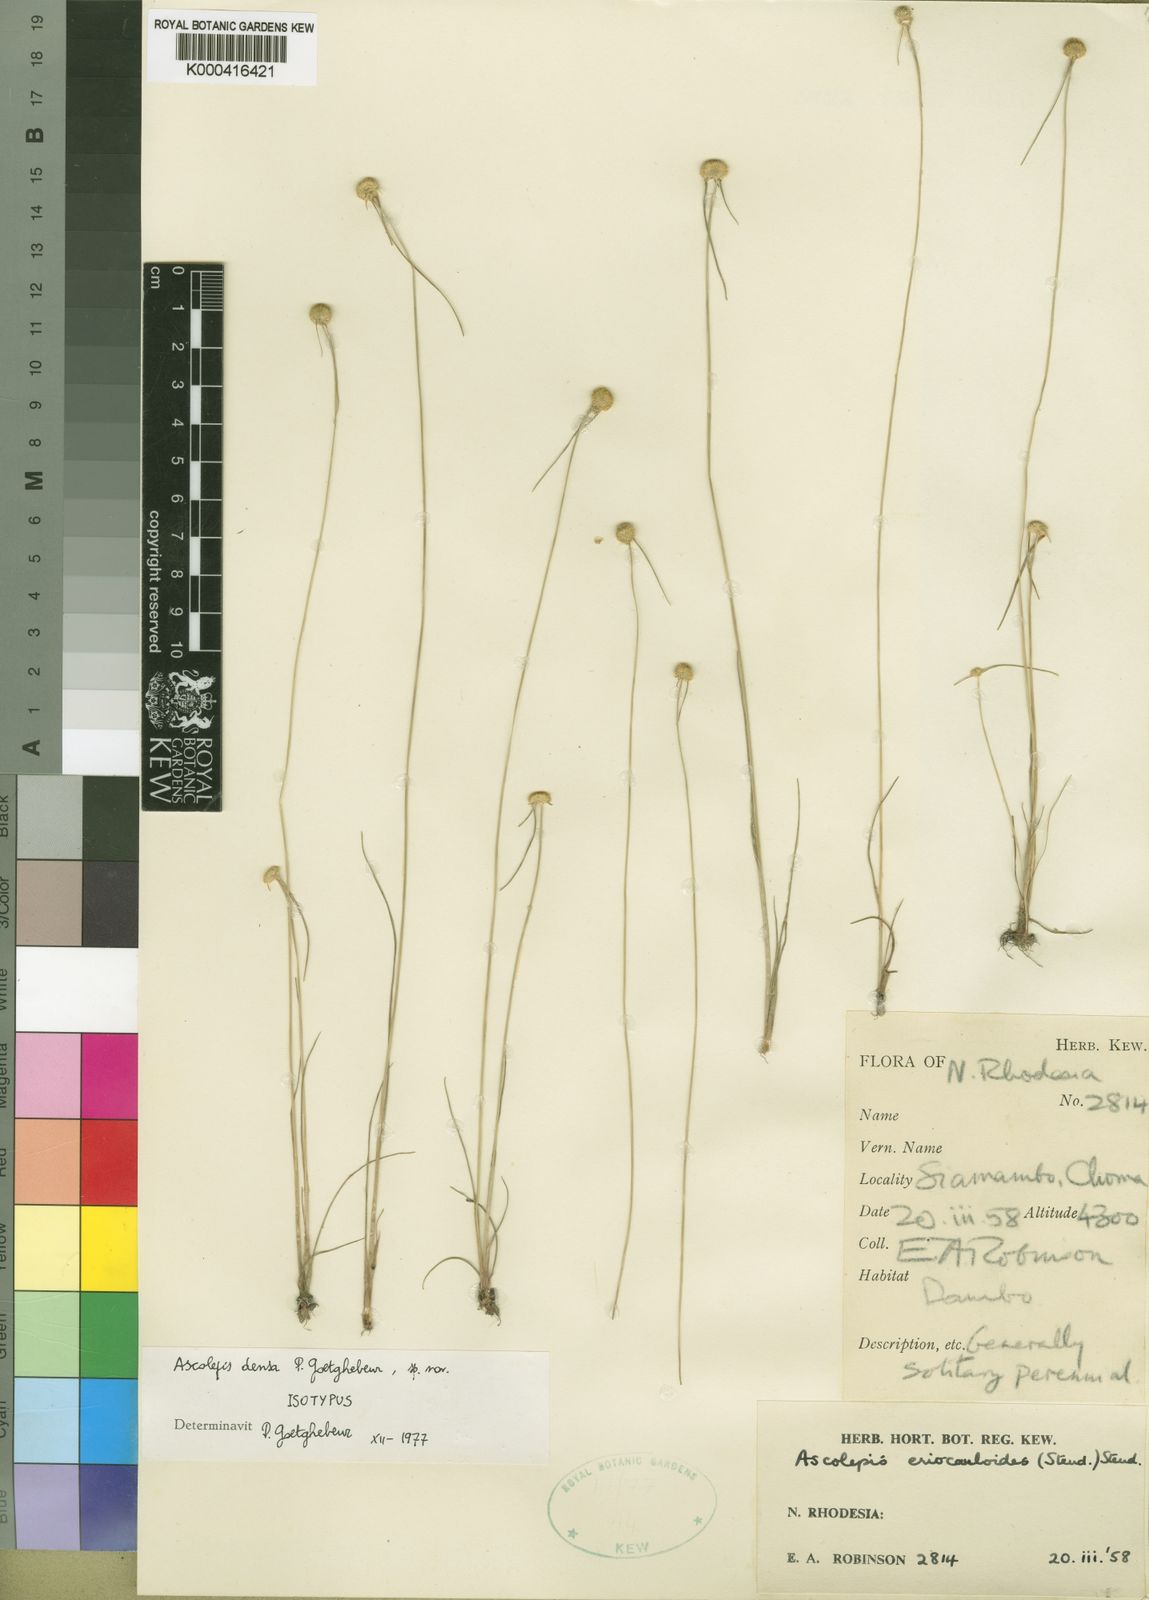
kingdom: Plantae
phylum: Tracheophyta
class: Liliopsida
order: Poales
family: Cyperaceae
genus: Cyperus
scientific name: Cyperus ascodensus
